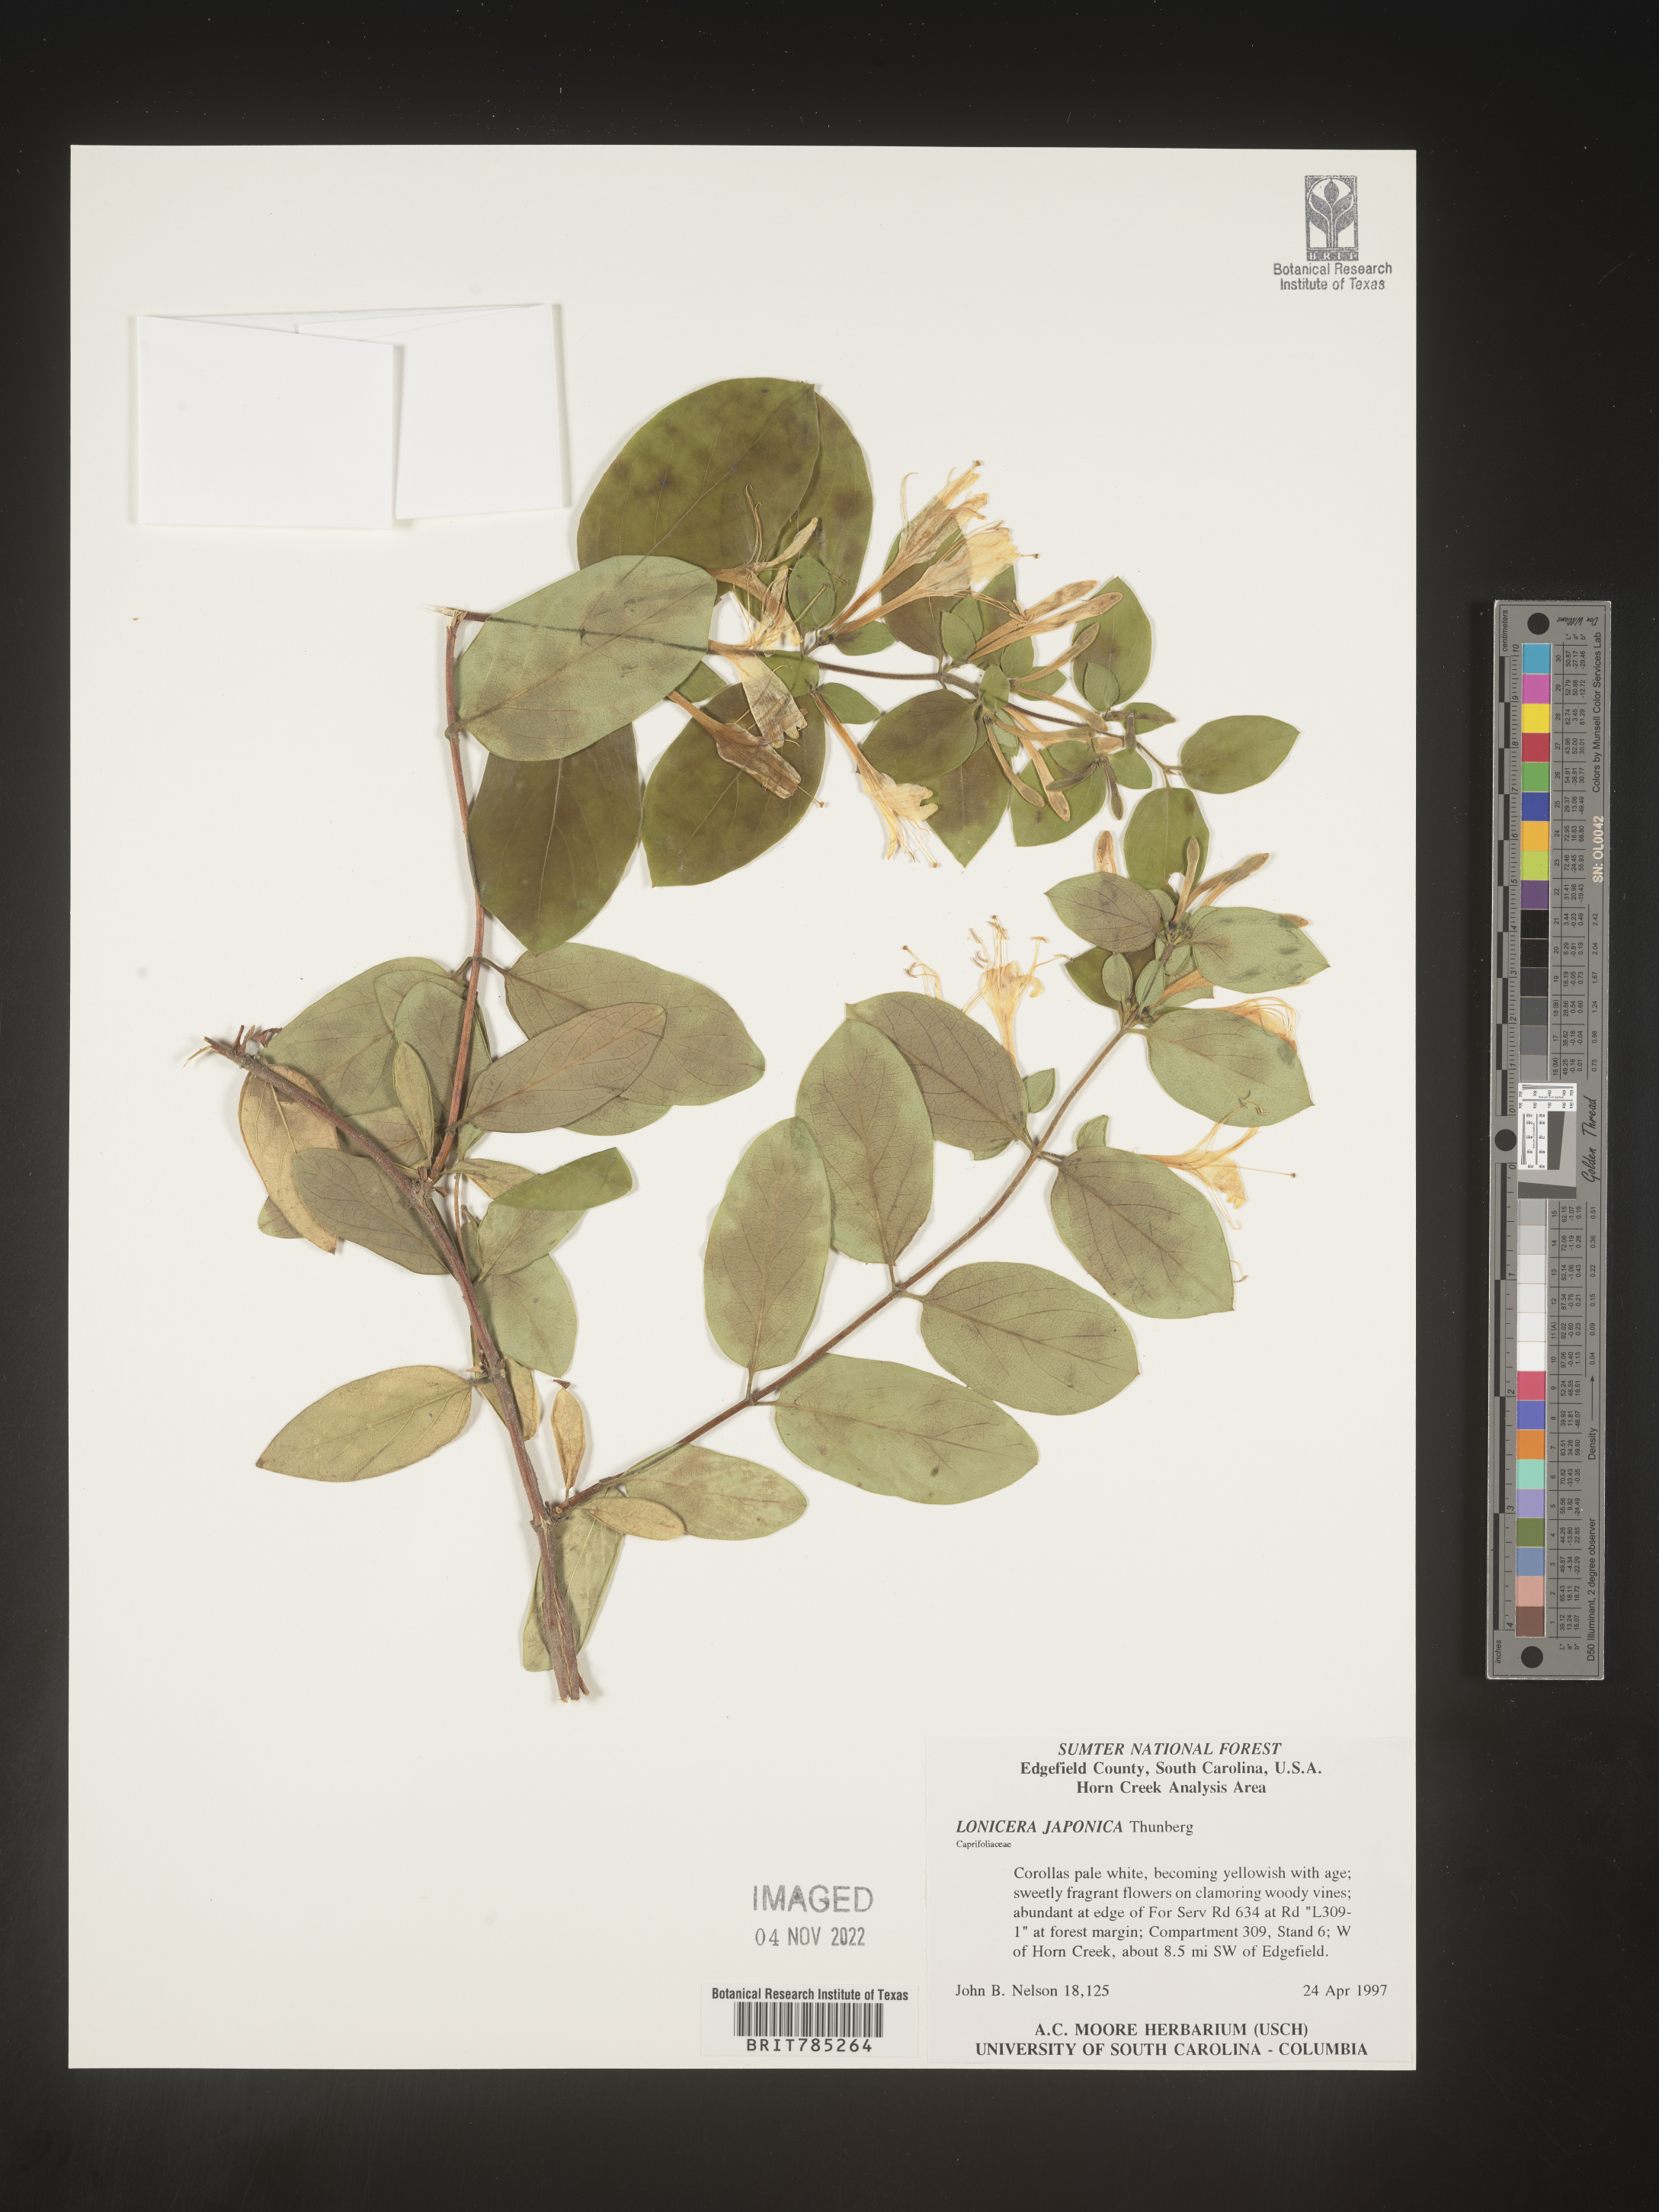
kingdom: Plantae
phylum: Tracheophyta
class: Magnoliopsida
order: Dipsacales
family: Caprifoliaceae
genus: Lonicera
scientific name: Lonicera japonica
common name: Japanese honeysuckle
